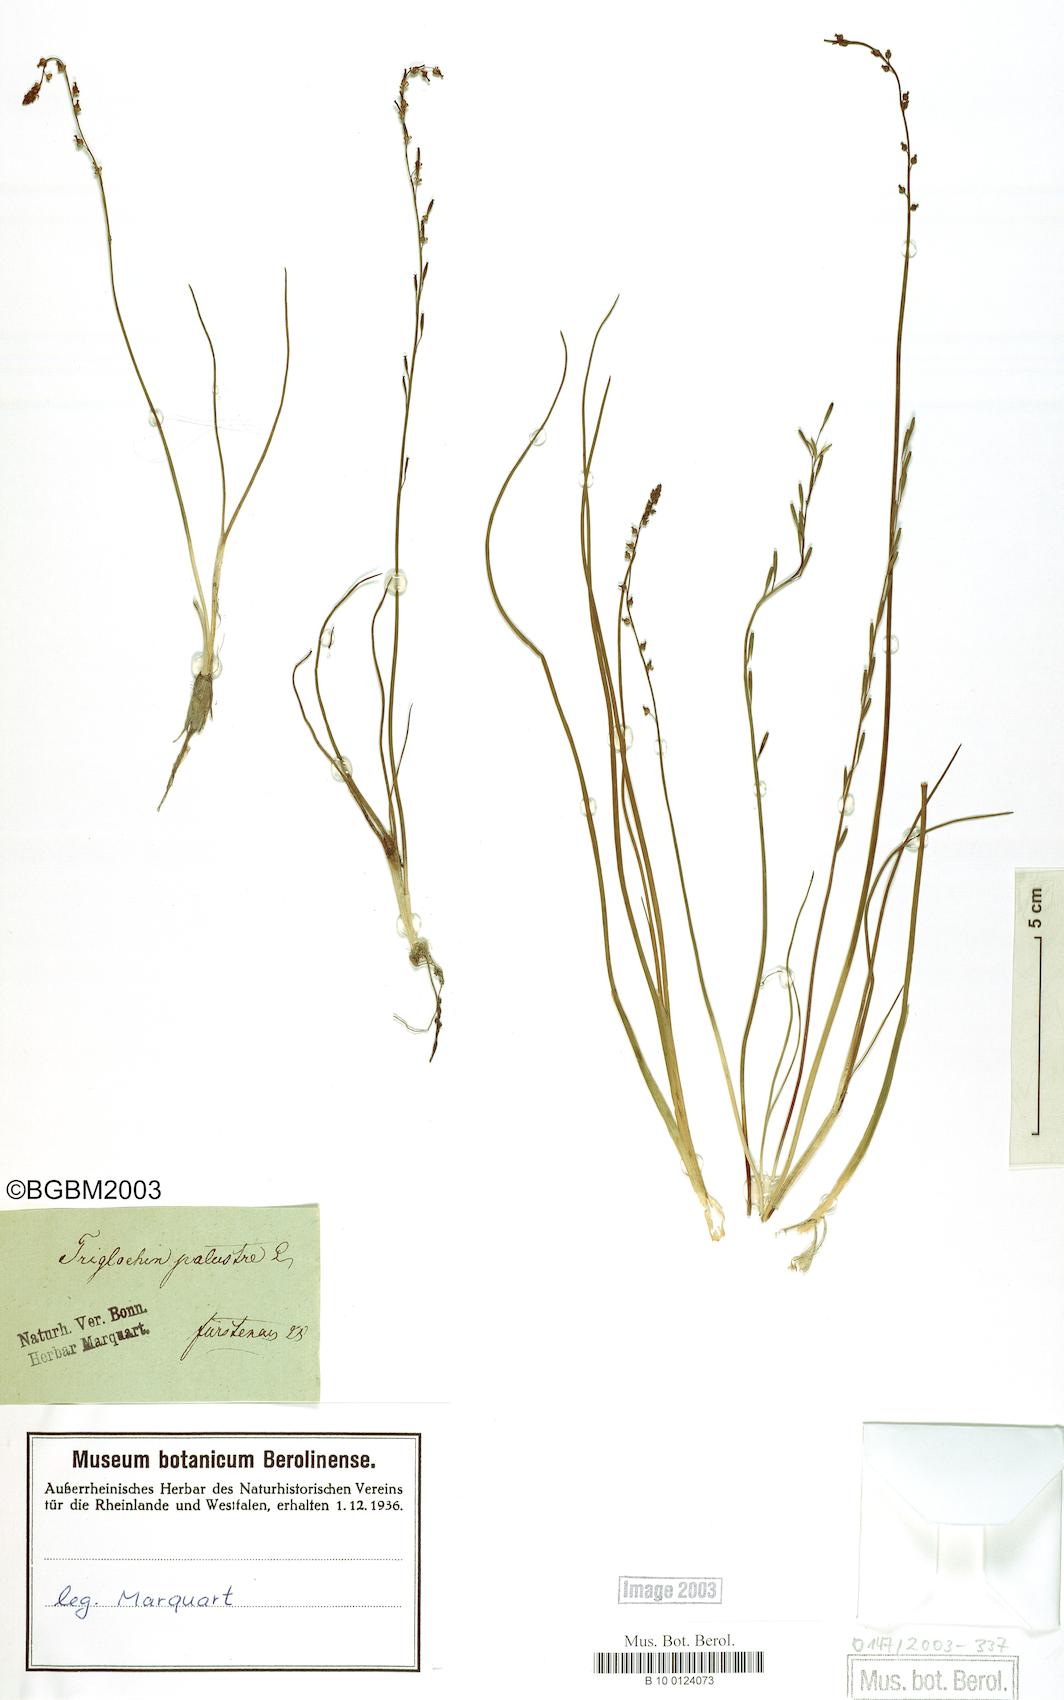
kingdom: Plantae
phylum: Tracheophyta
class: Liliopsida
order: Alismatales
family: Juncaginaceae
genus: Triglochin
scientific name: Triglochin palustris
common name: Marsh arrowgrass
